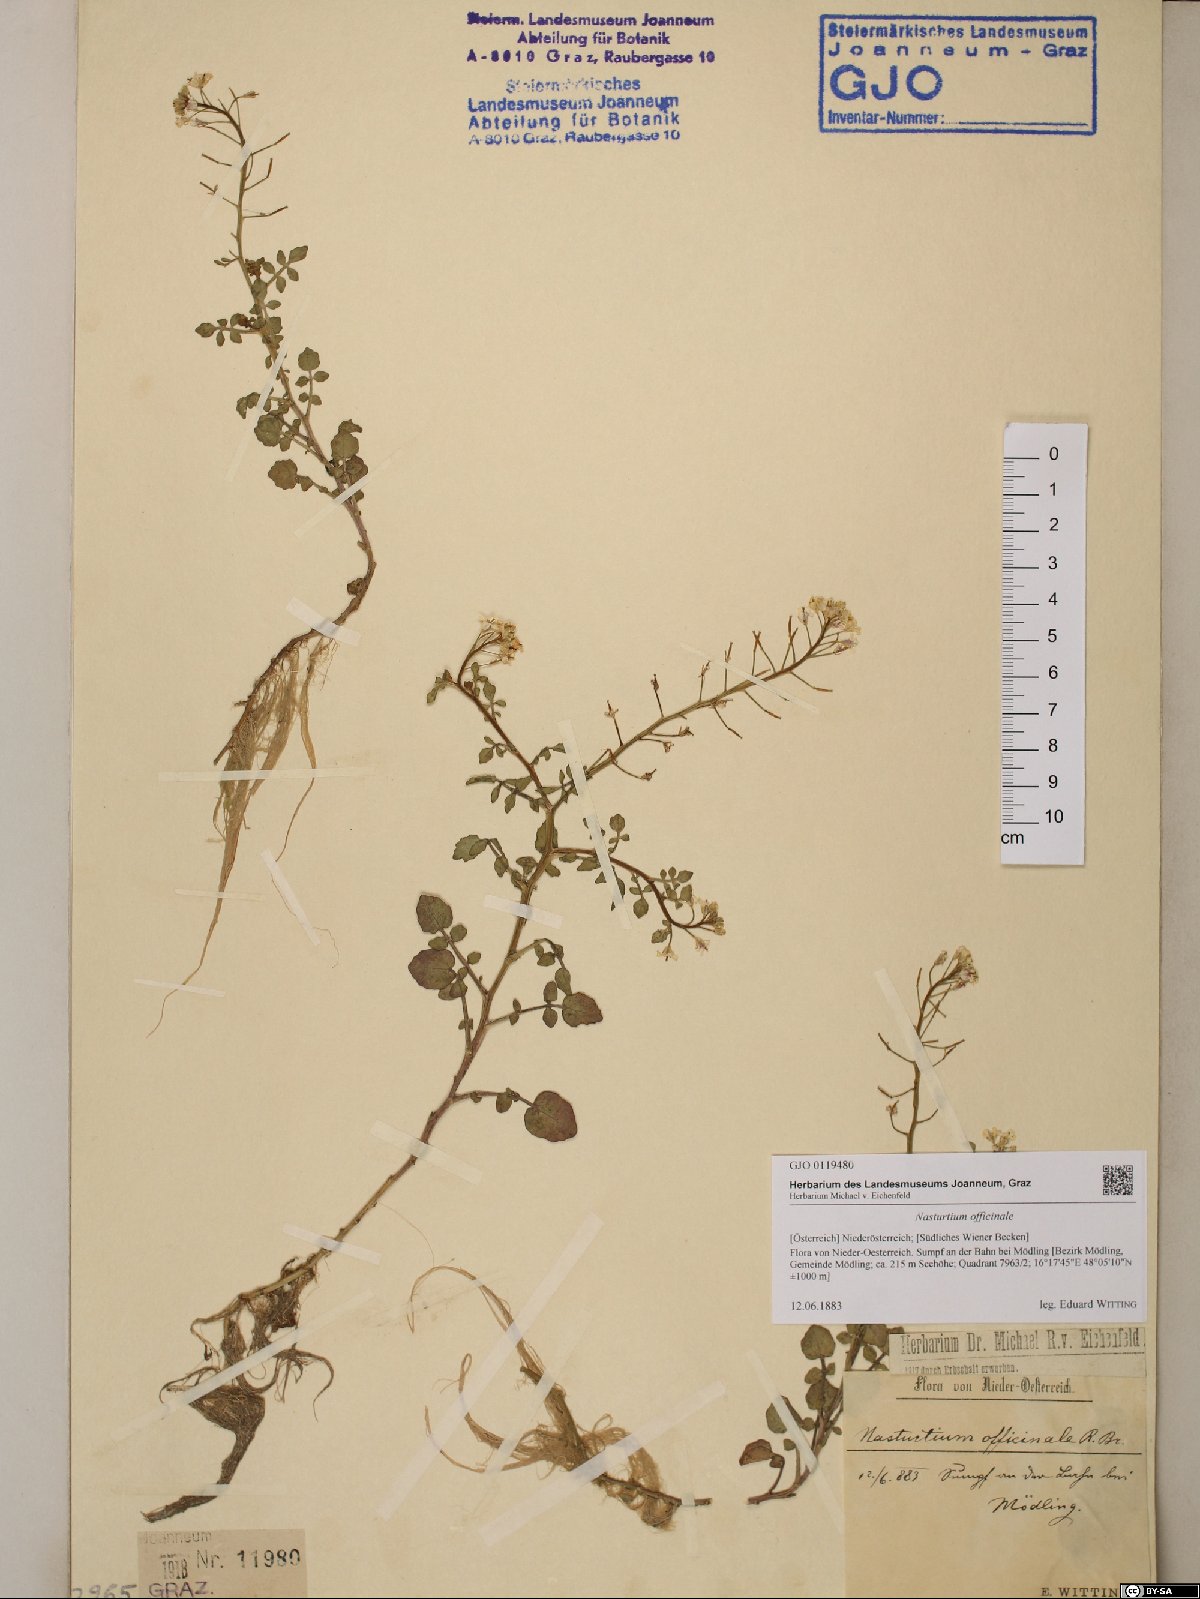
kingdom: Plantae
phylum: Tracheophyta
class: Magnoliopsida
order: Brassicales
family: Brassicaceae
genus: Nasturtium
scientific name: Nasturtium officinale
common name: Watercress
